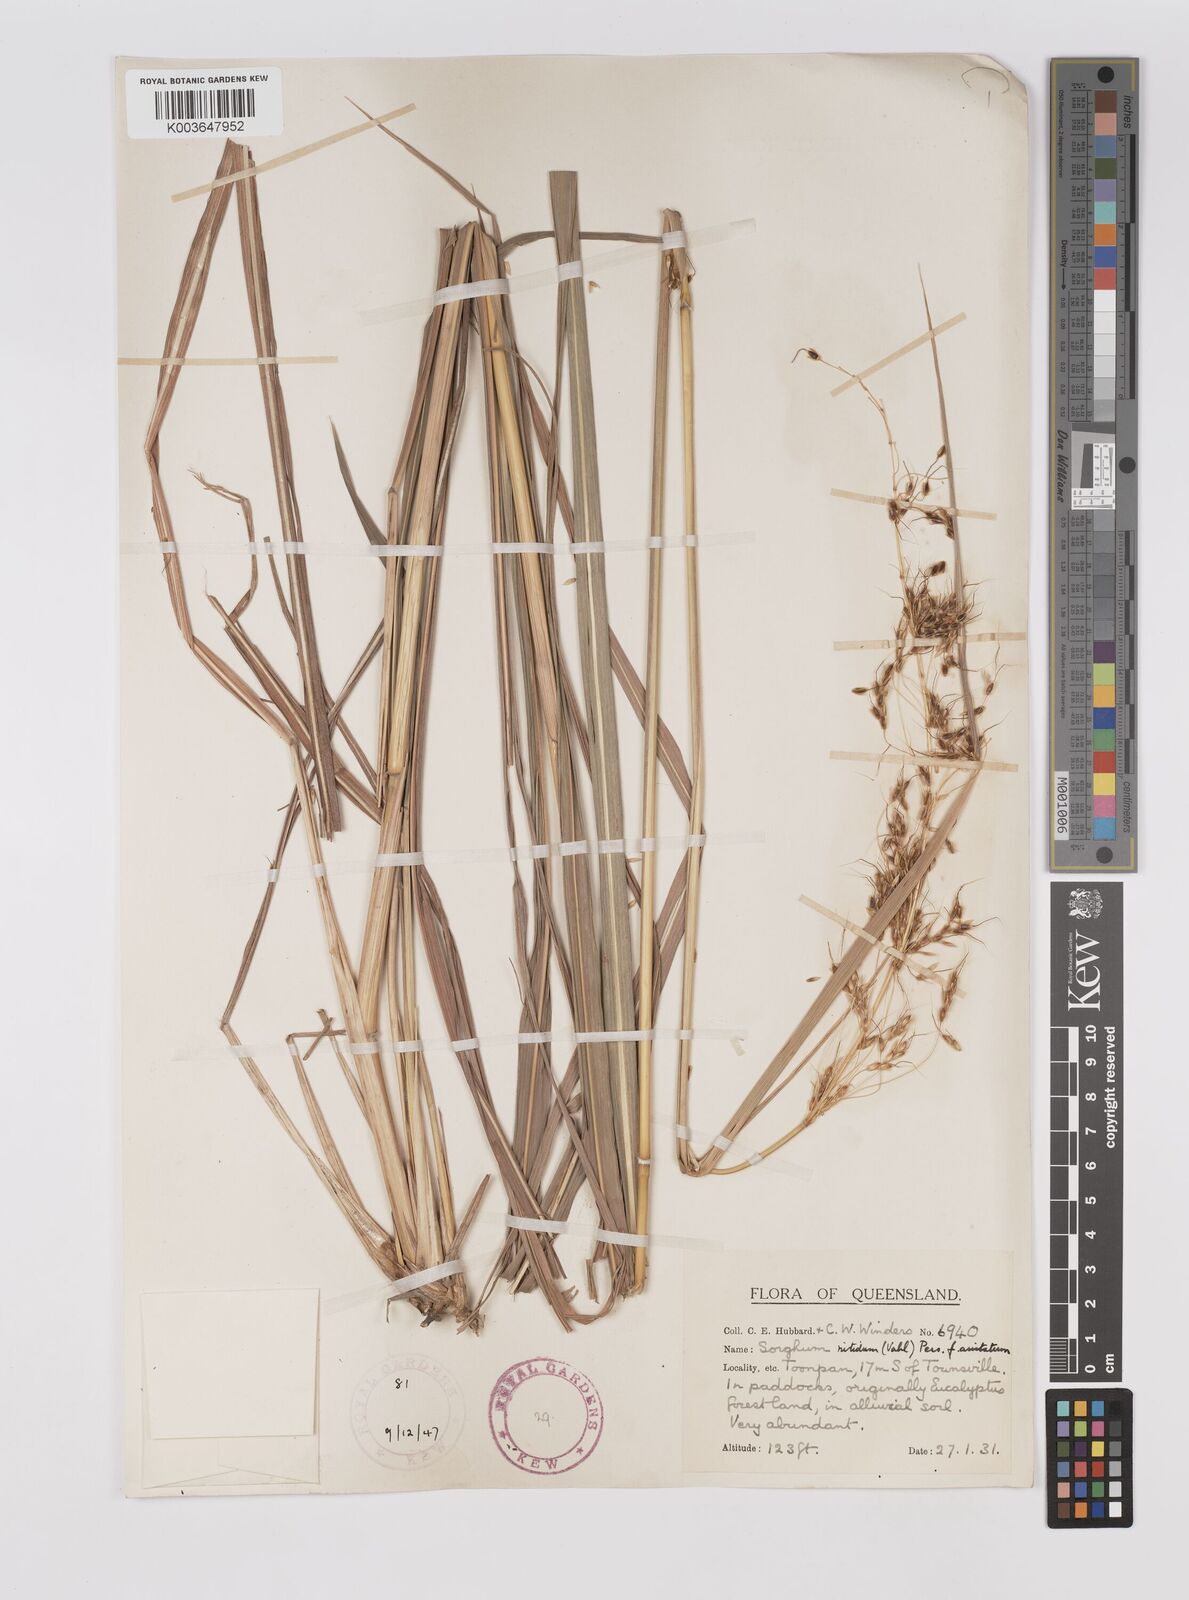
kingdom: Plantae
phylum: Tracheophyta
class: Liliopsida
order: Poales
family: Poaceae
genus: Sorghum
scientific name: Sorghum nitidum
